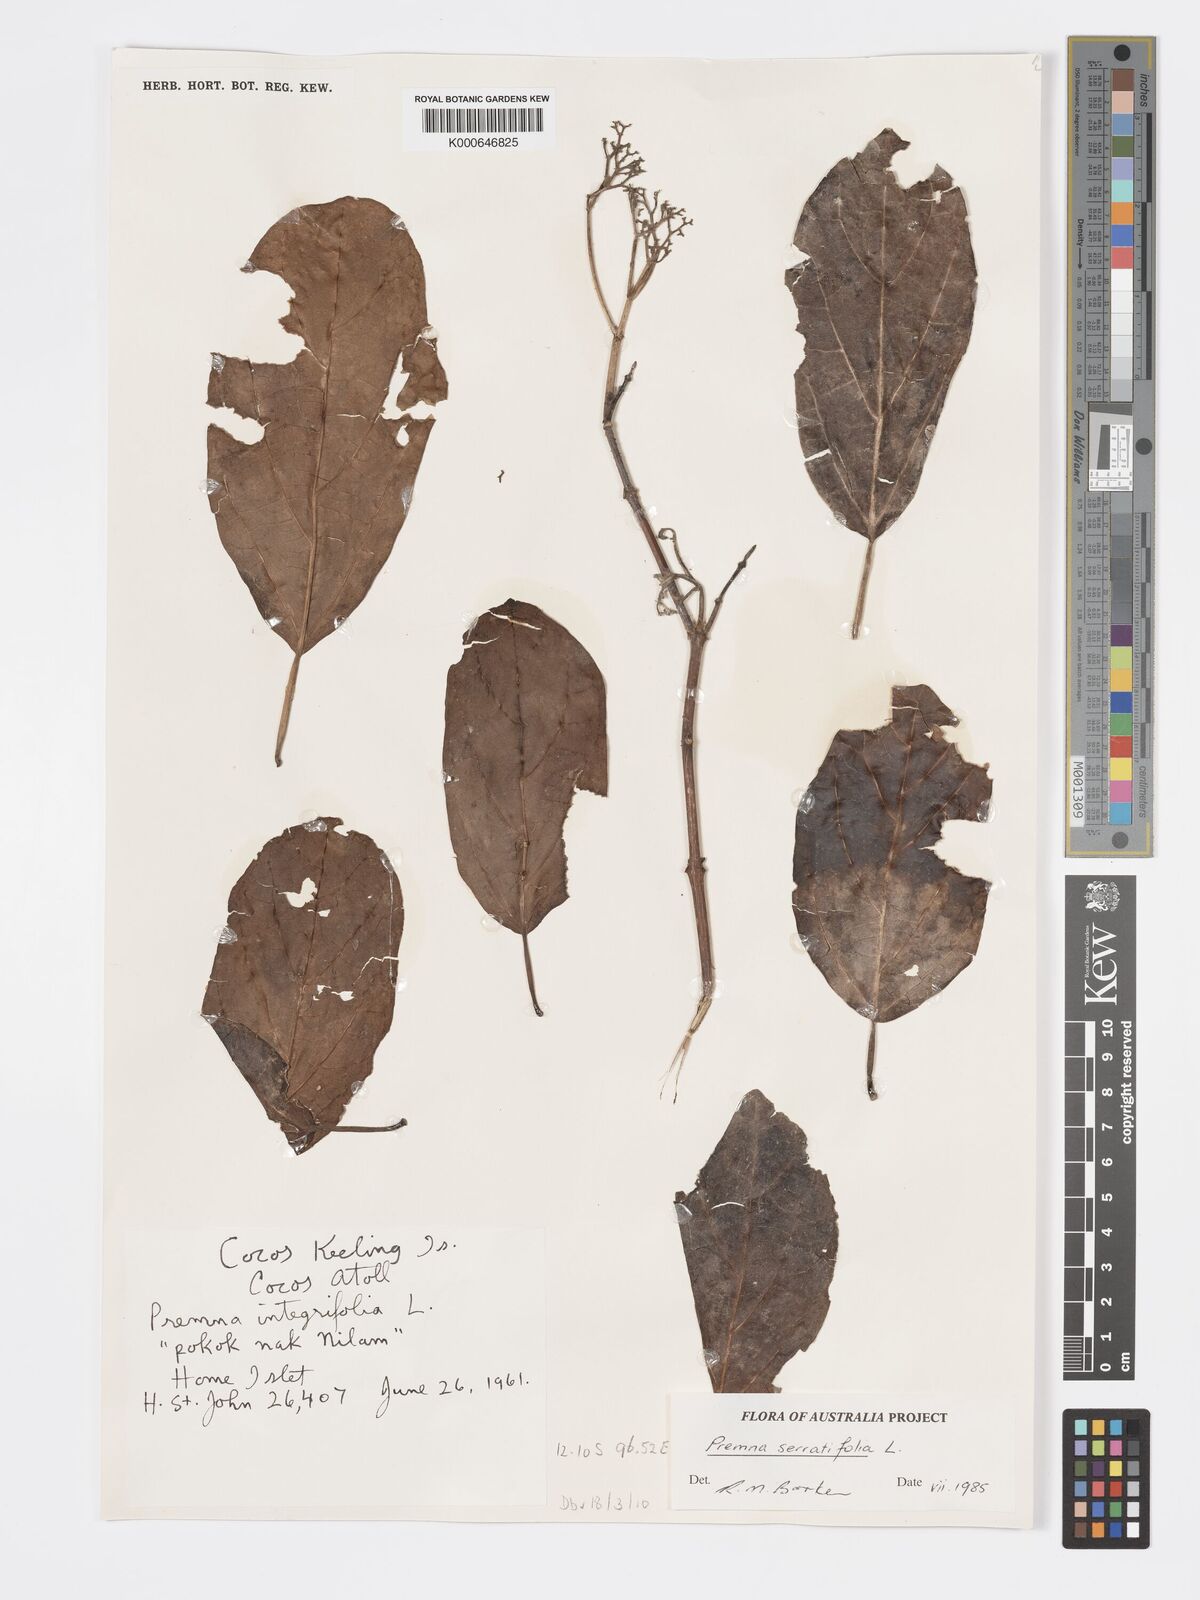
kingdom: Plantae
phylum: Tracheophyta
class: Magnoliopsida
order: Lamiales
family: Lamiaceae
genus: Premna
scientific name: Premna serratifolia
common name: Bastard guelder
